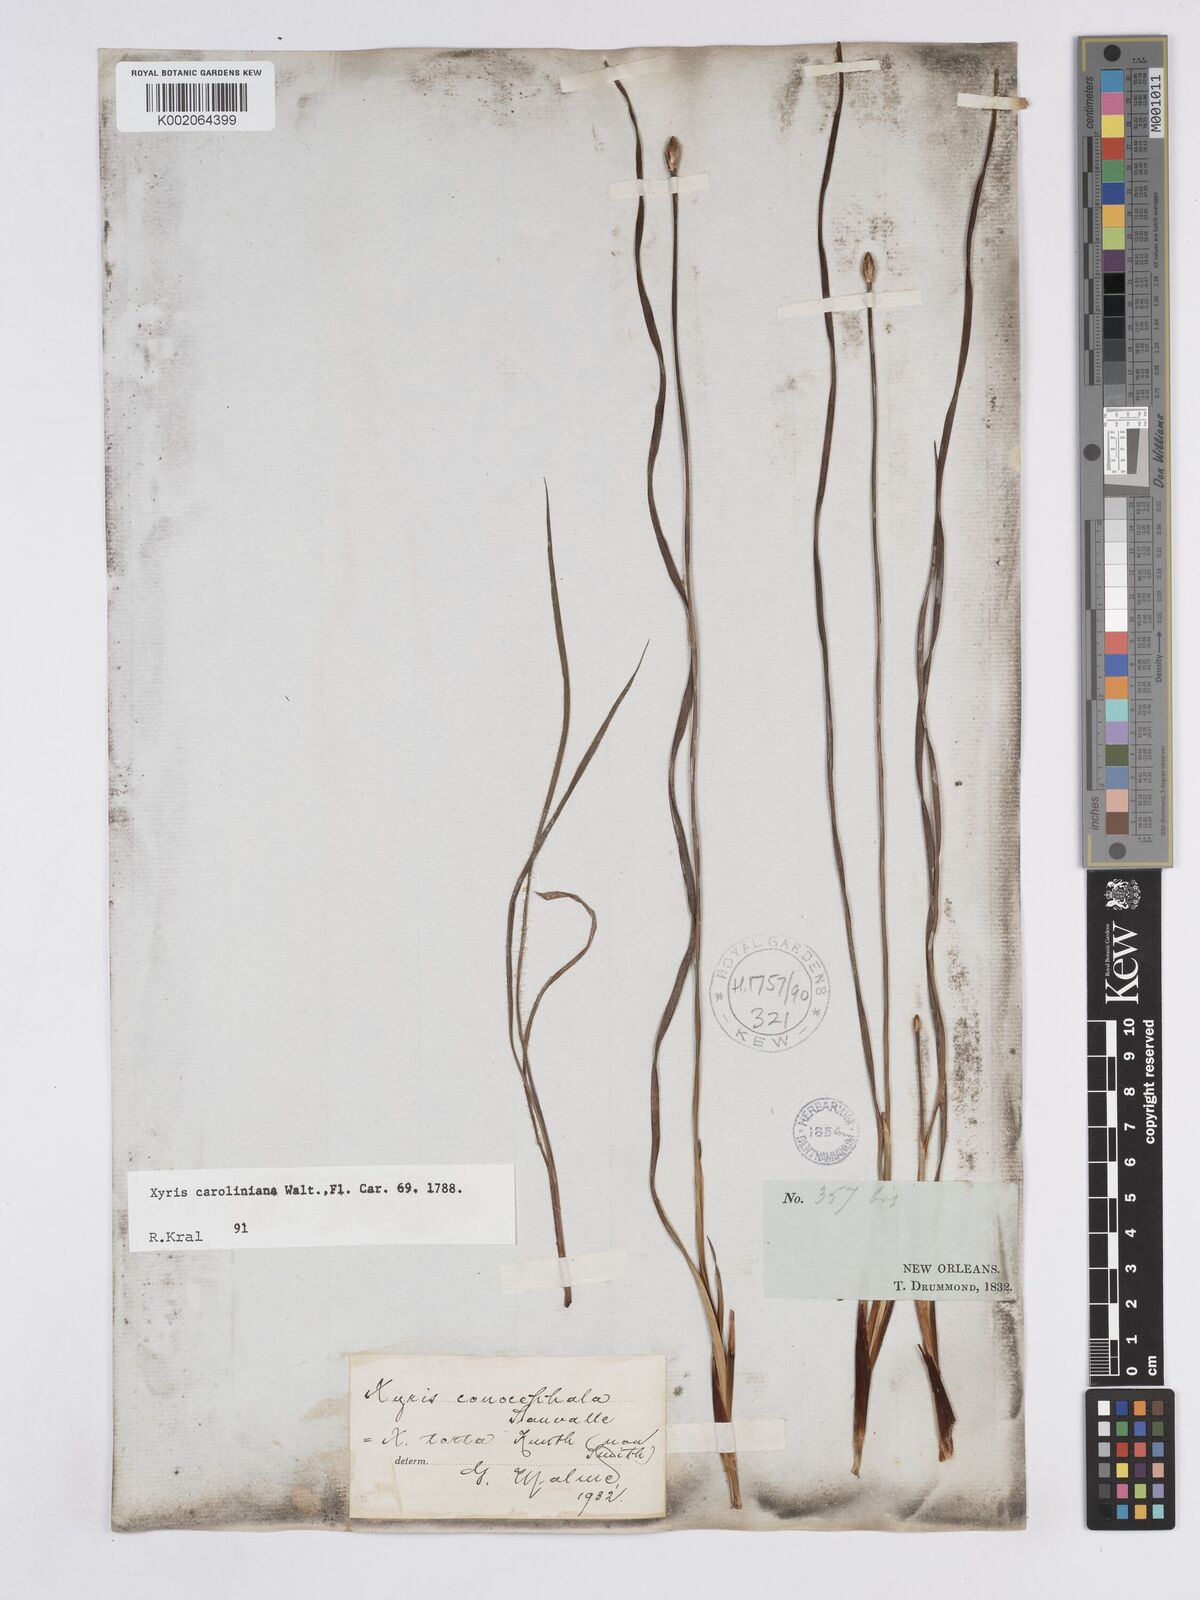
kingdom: Plantae
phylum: Tracheophyta
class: Liliopsida
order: Poales
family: Xyridaceae
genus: Xyris
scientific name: Xyris caroliniana
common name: Carolina yellow-eyed-grass
